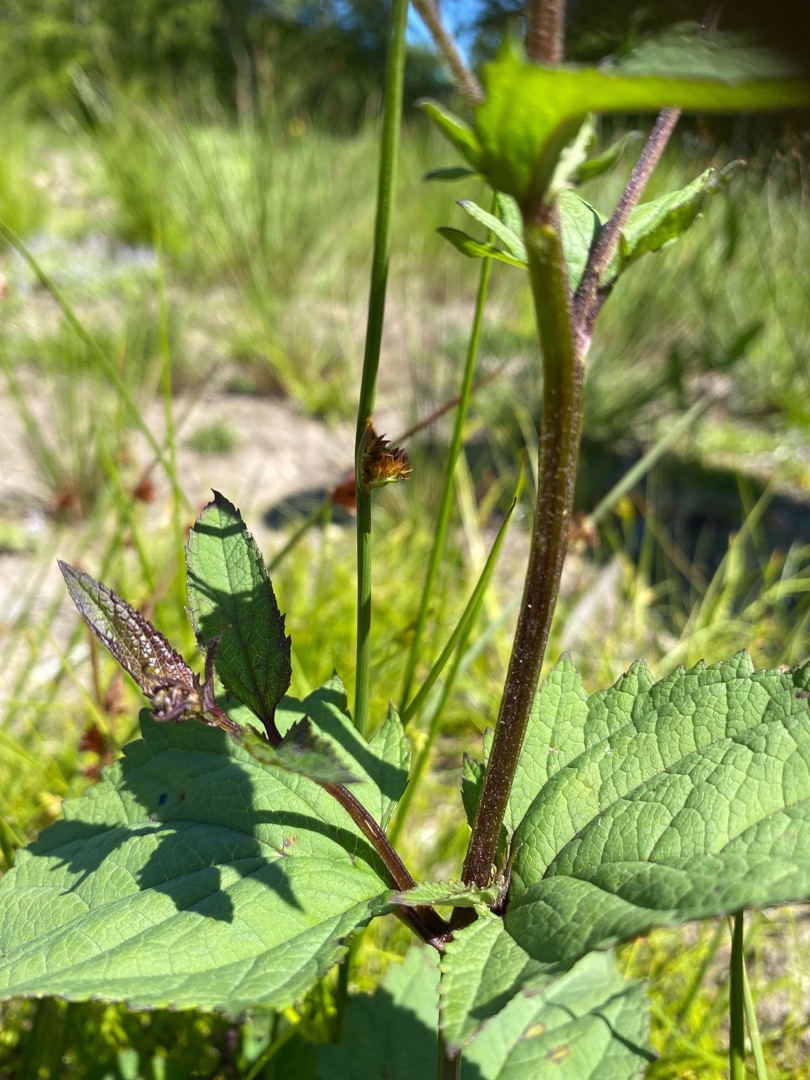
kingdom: Plantae
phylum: Tracheophyta
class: Magnoliopsida
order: Lamiales
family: Scrophulariaceae
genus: Scrophularia
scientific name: Scrophularia nodosa
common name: Knoldet brunrod
